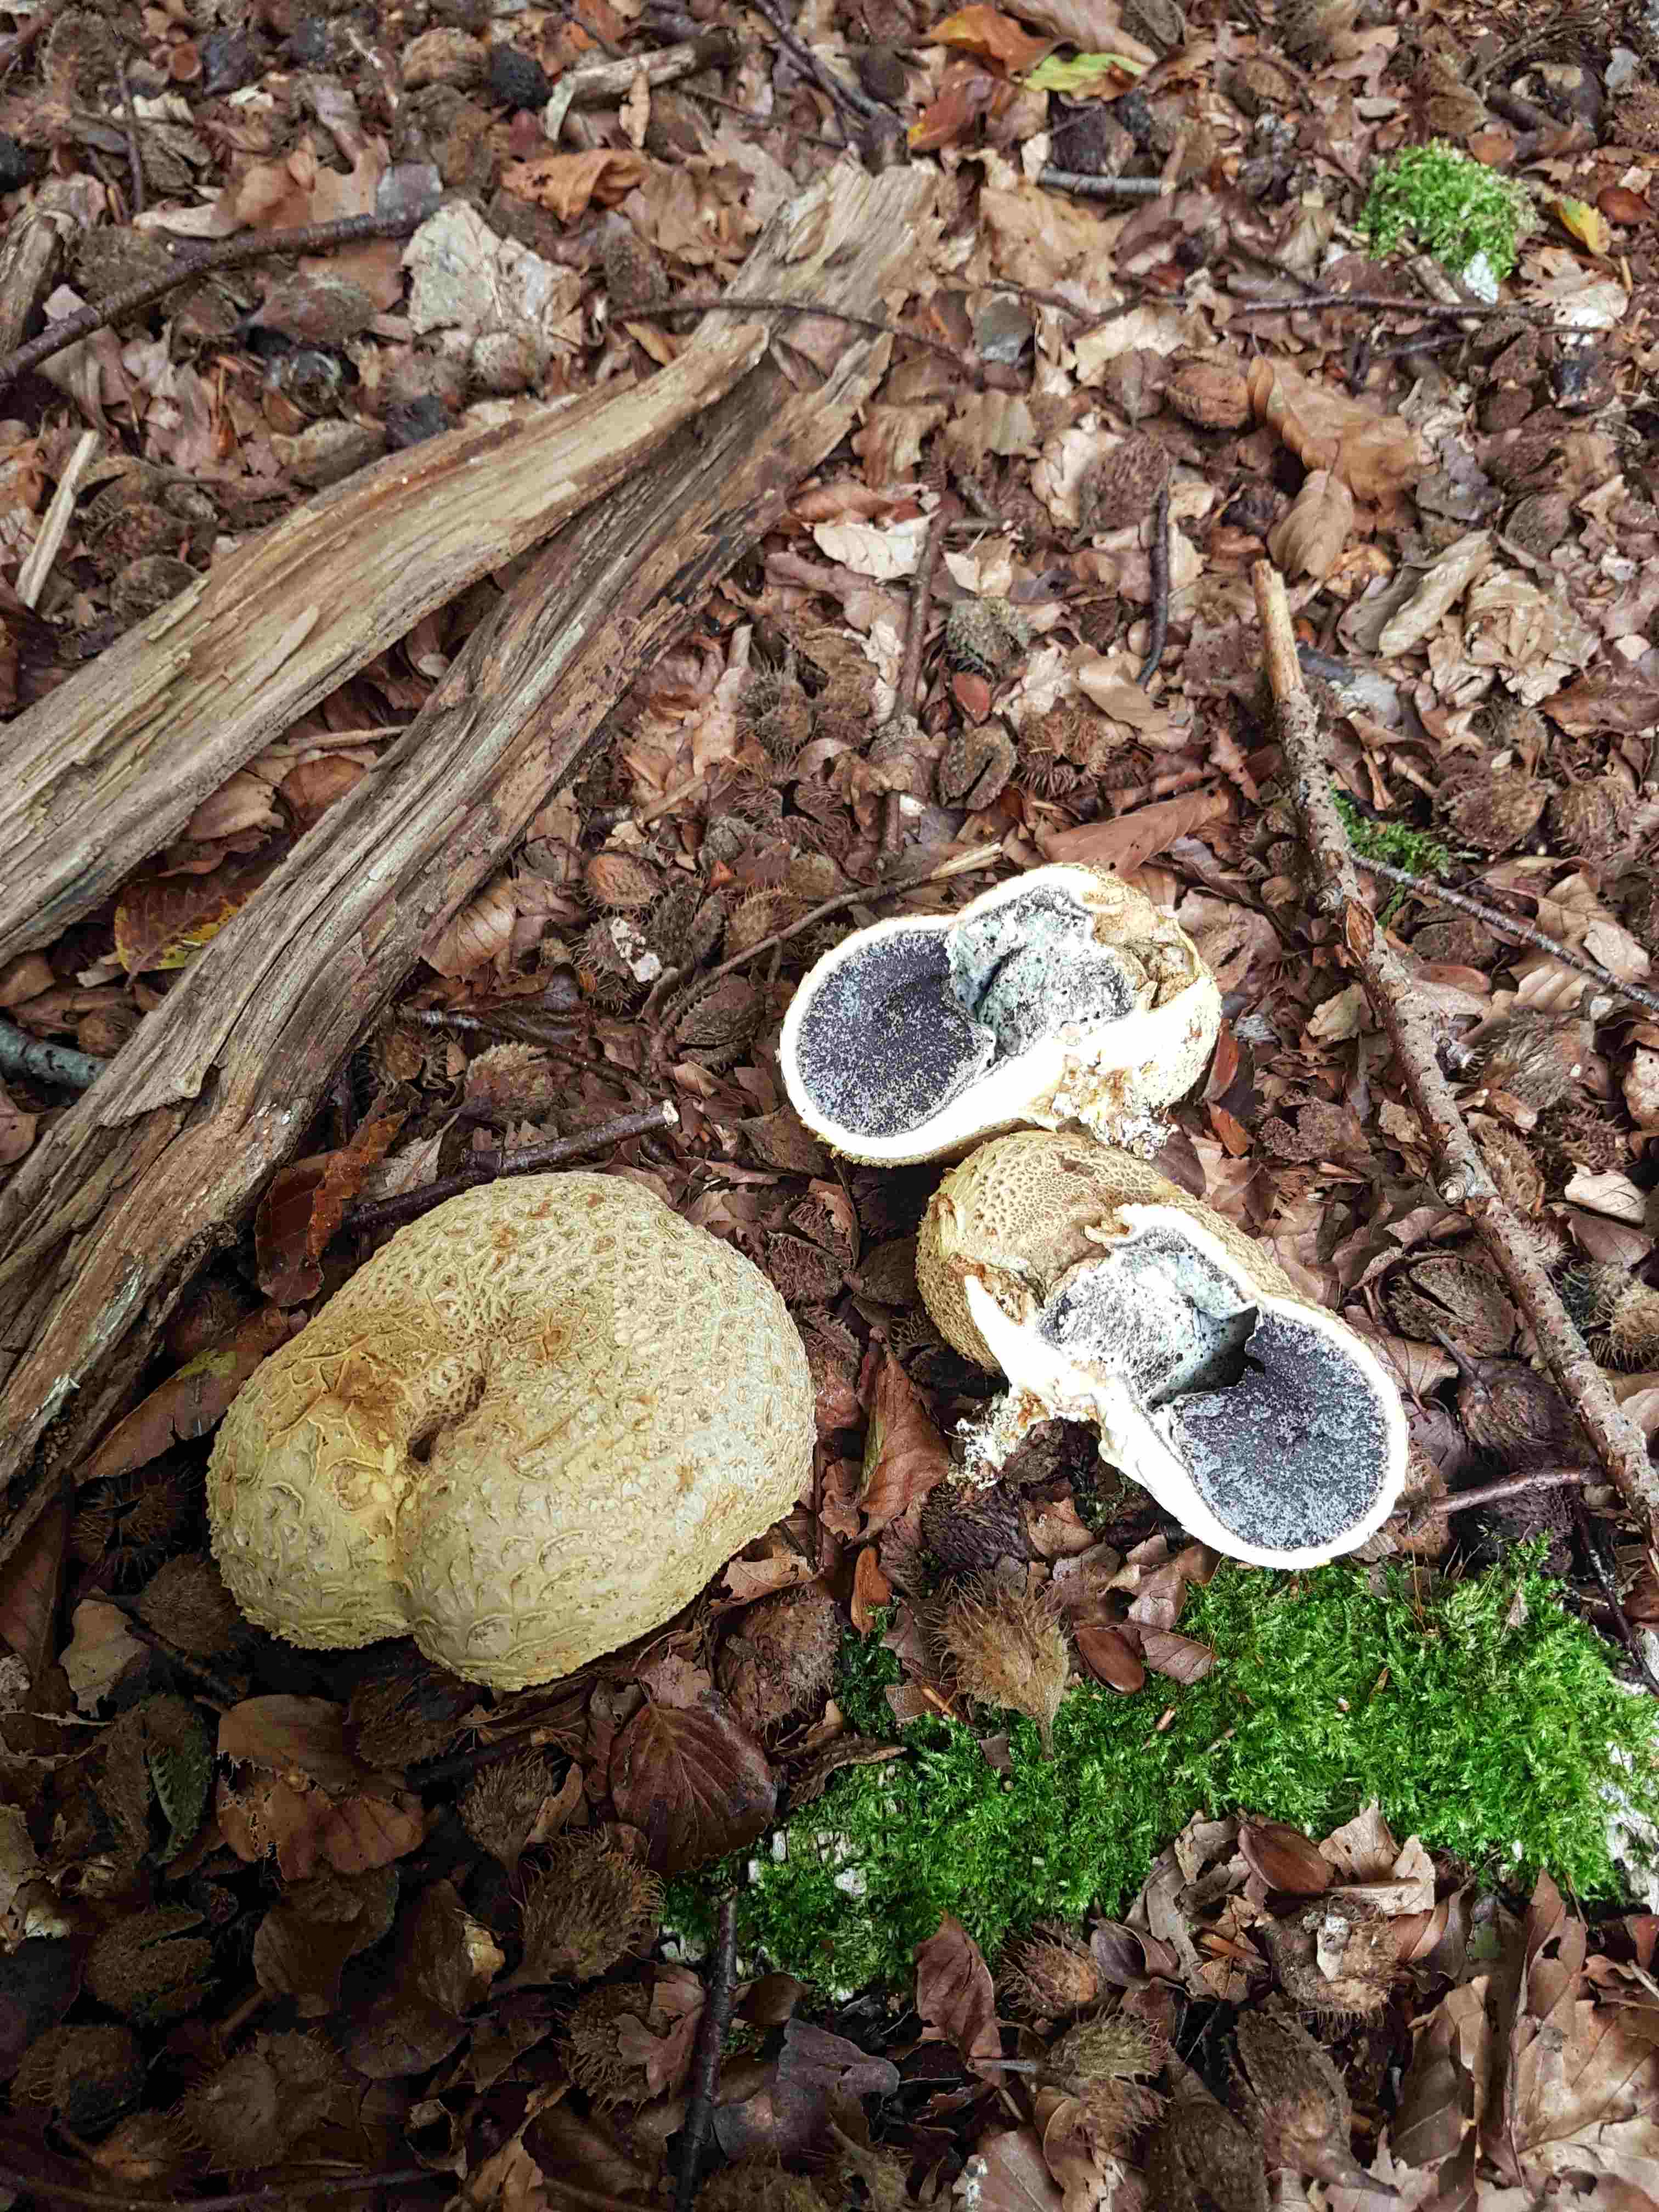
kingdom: Fungi
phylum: Basidiomycota
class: Agaricomycetes
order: Boletales
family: Sclerodermataceae
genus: Scleroderma
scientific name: Scleroderma citrinum
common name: almindelig bruskbold
